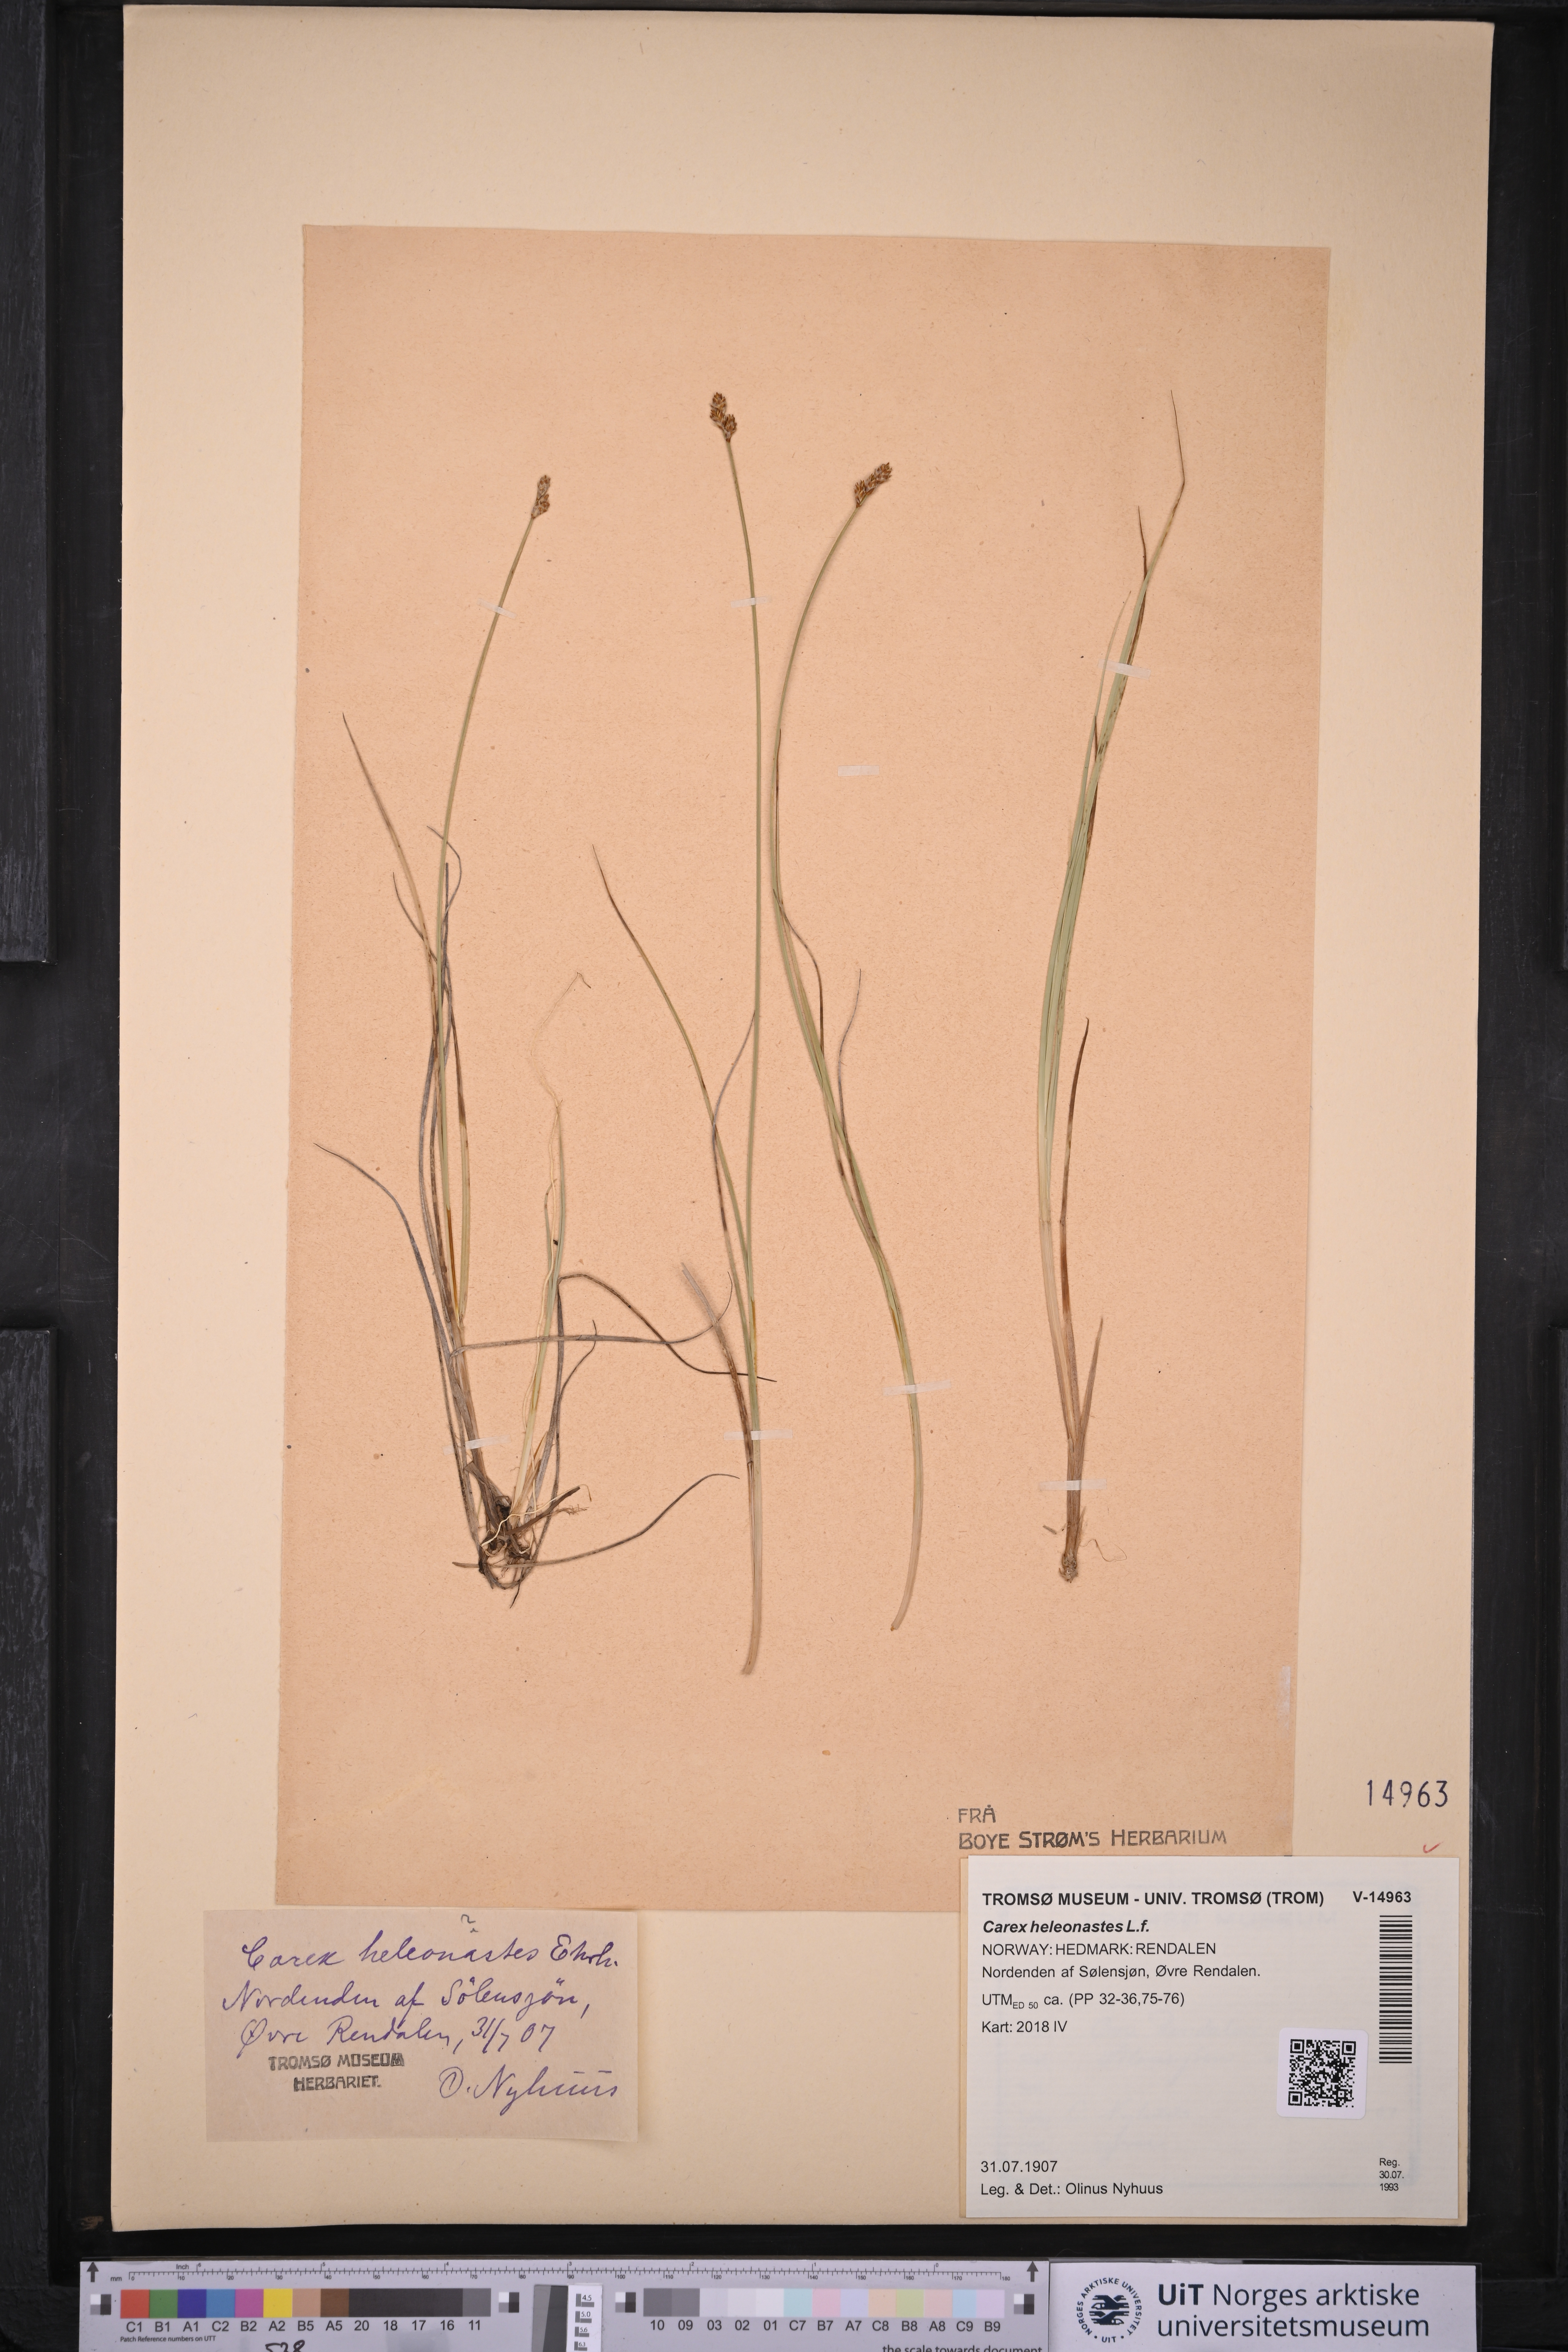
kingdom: Plantae
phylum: Tracheophyta
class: Liliopsida
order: Poales
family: Cyperaceae
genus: Carex
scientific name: Carex heleonastes
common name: Hudson bay sedge
